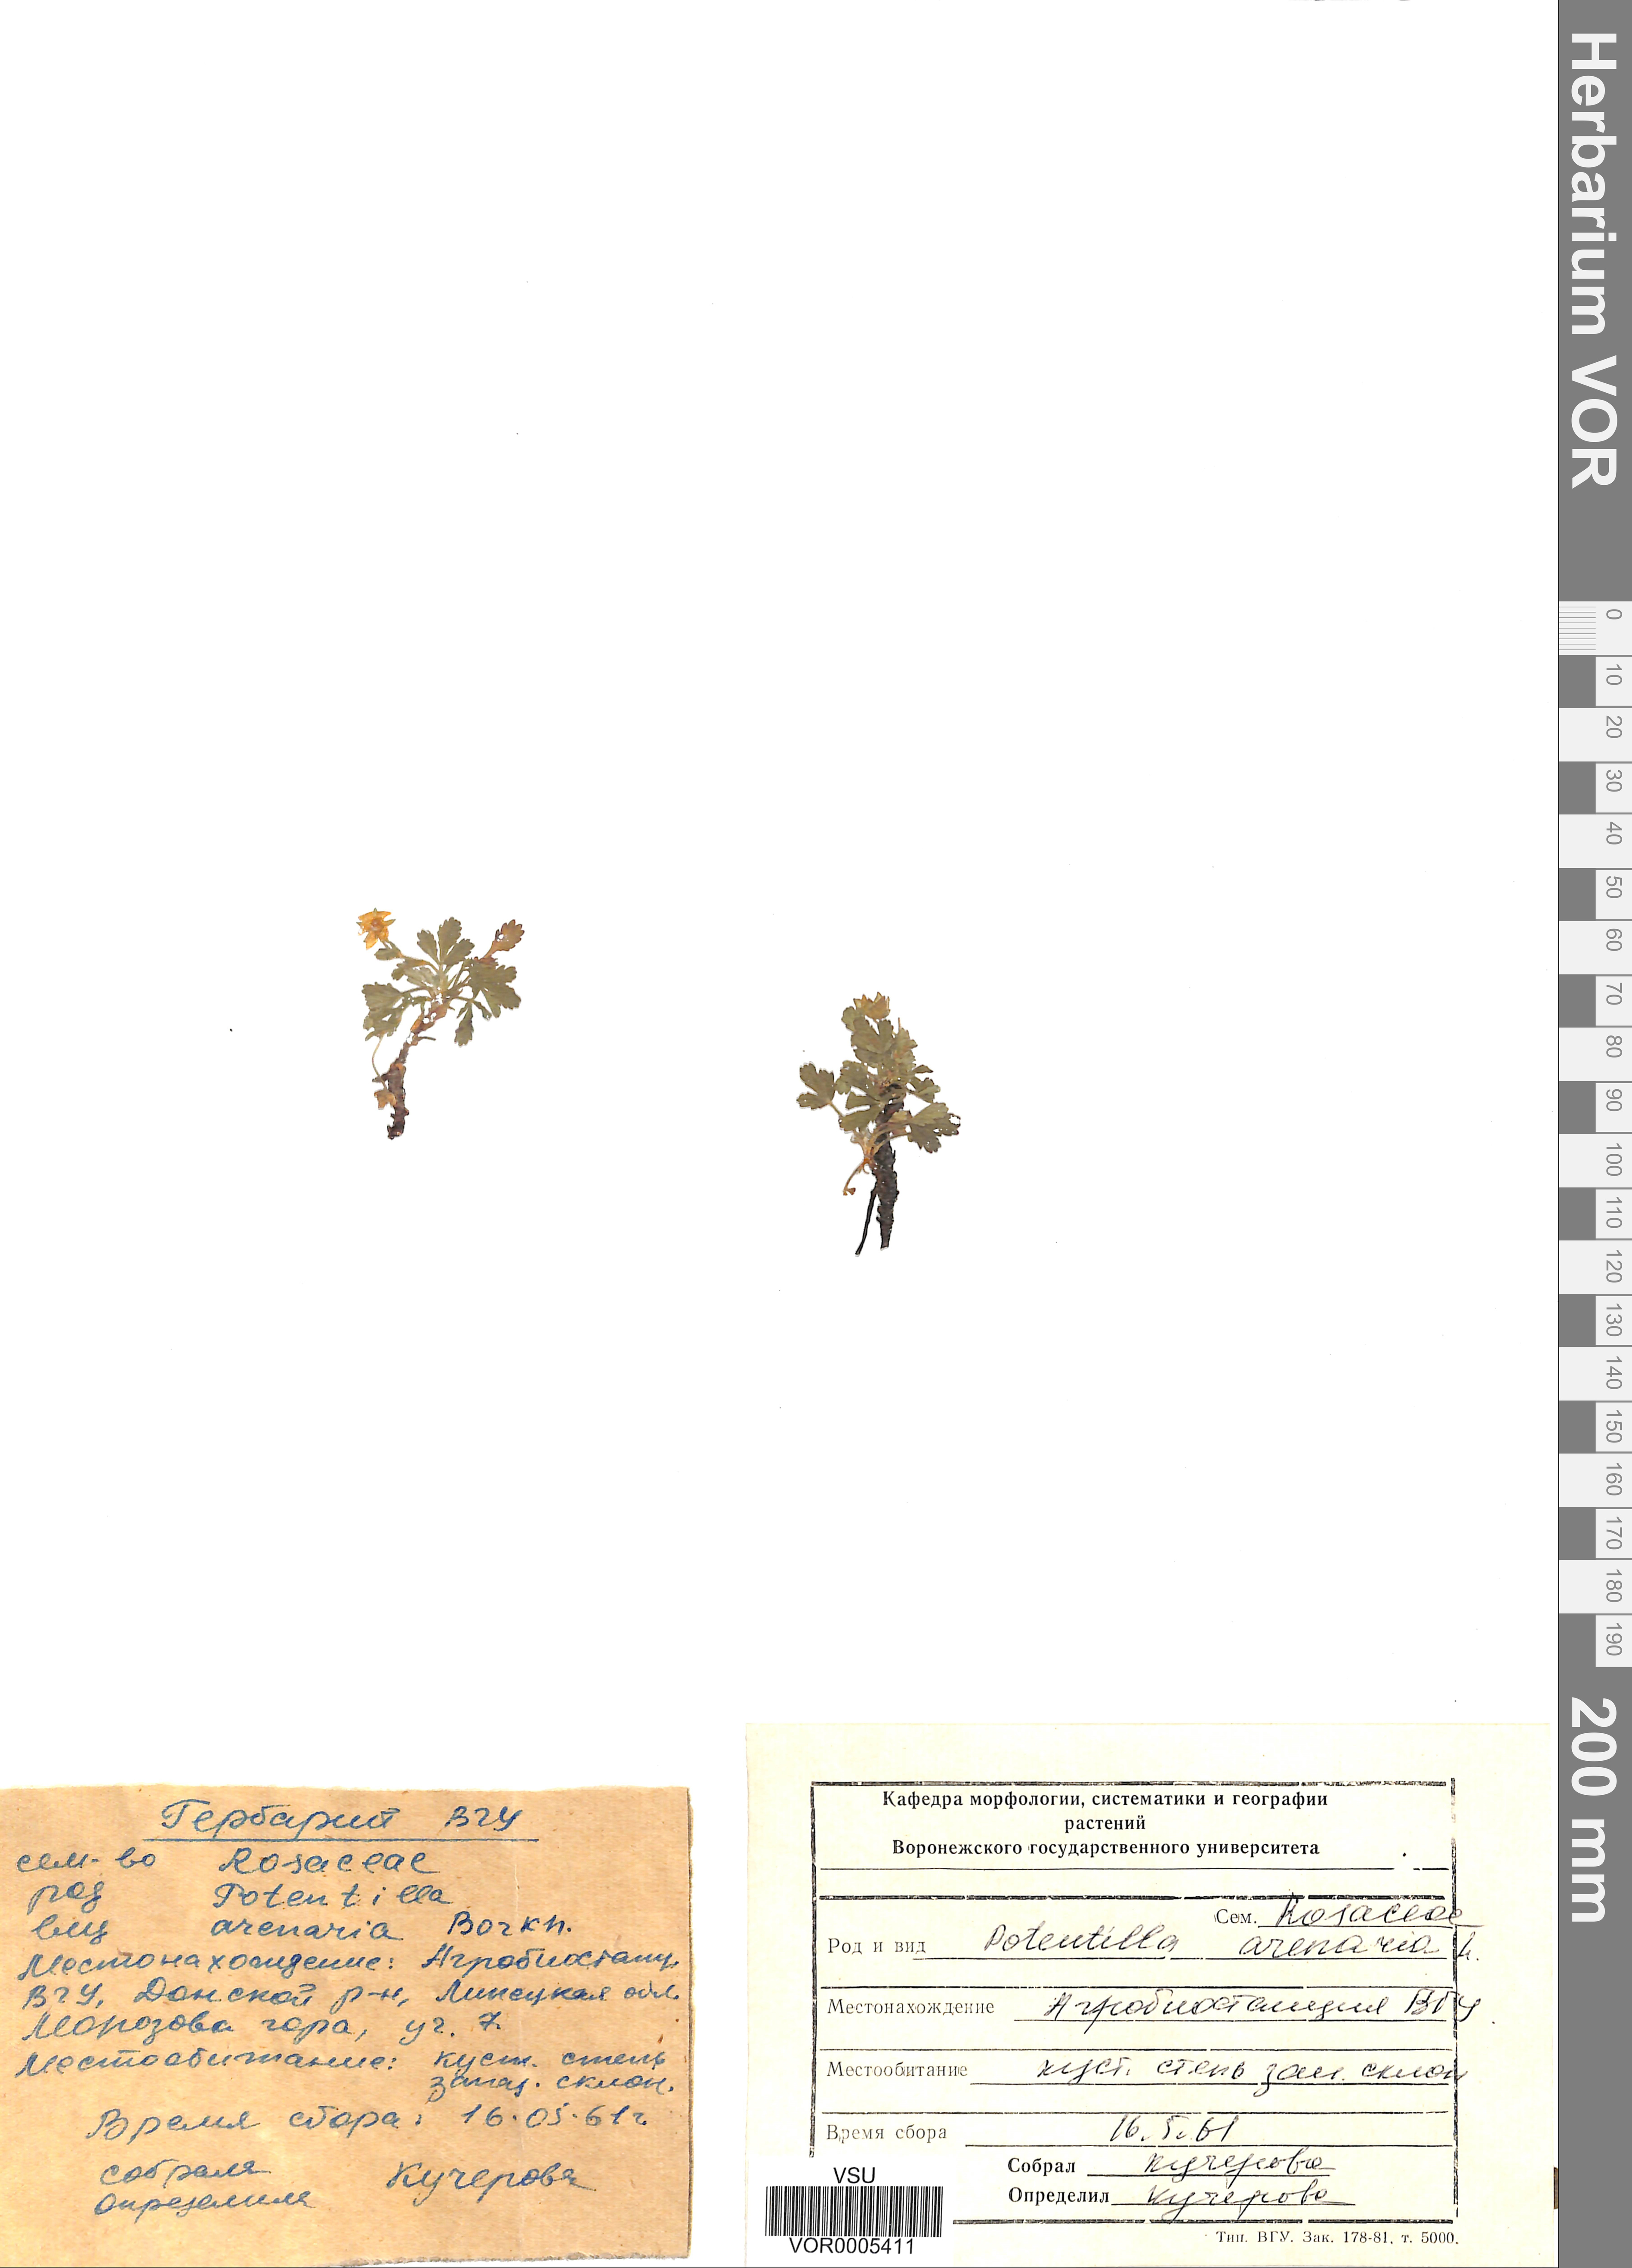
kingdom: Plantae
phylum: Tracheophyta
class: Magnoliopsida
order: Rosales
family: Rosaceae
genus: Potentilla
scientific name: Potentilla cinerea
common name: Ashy cinquefoil
